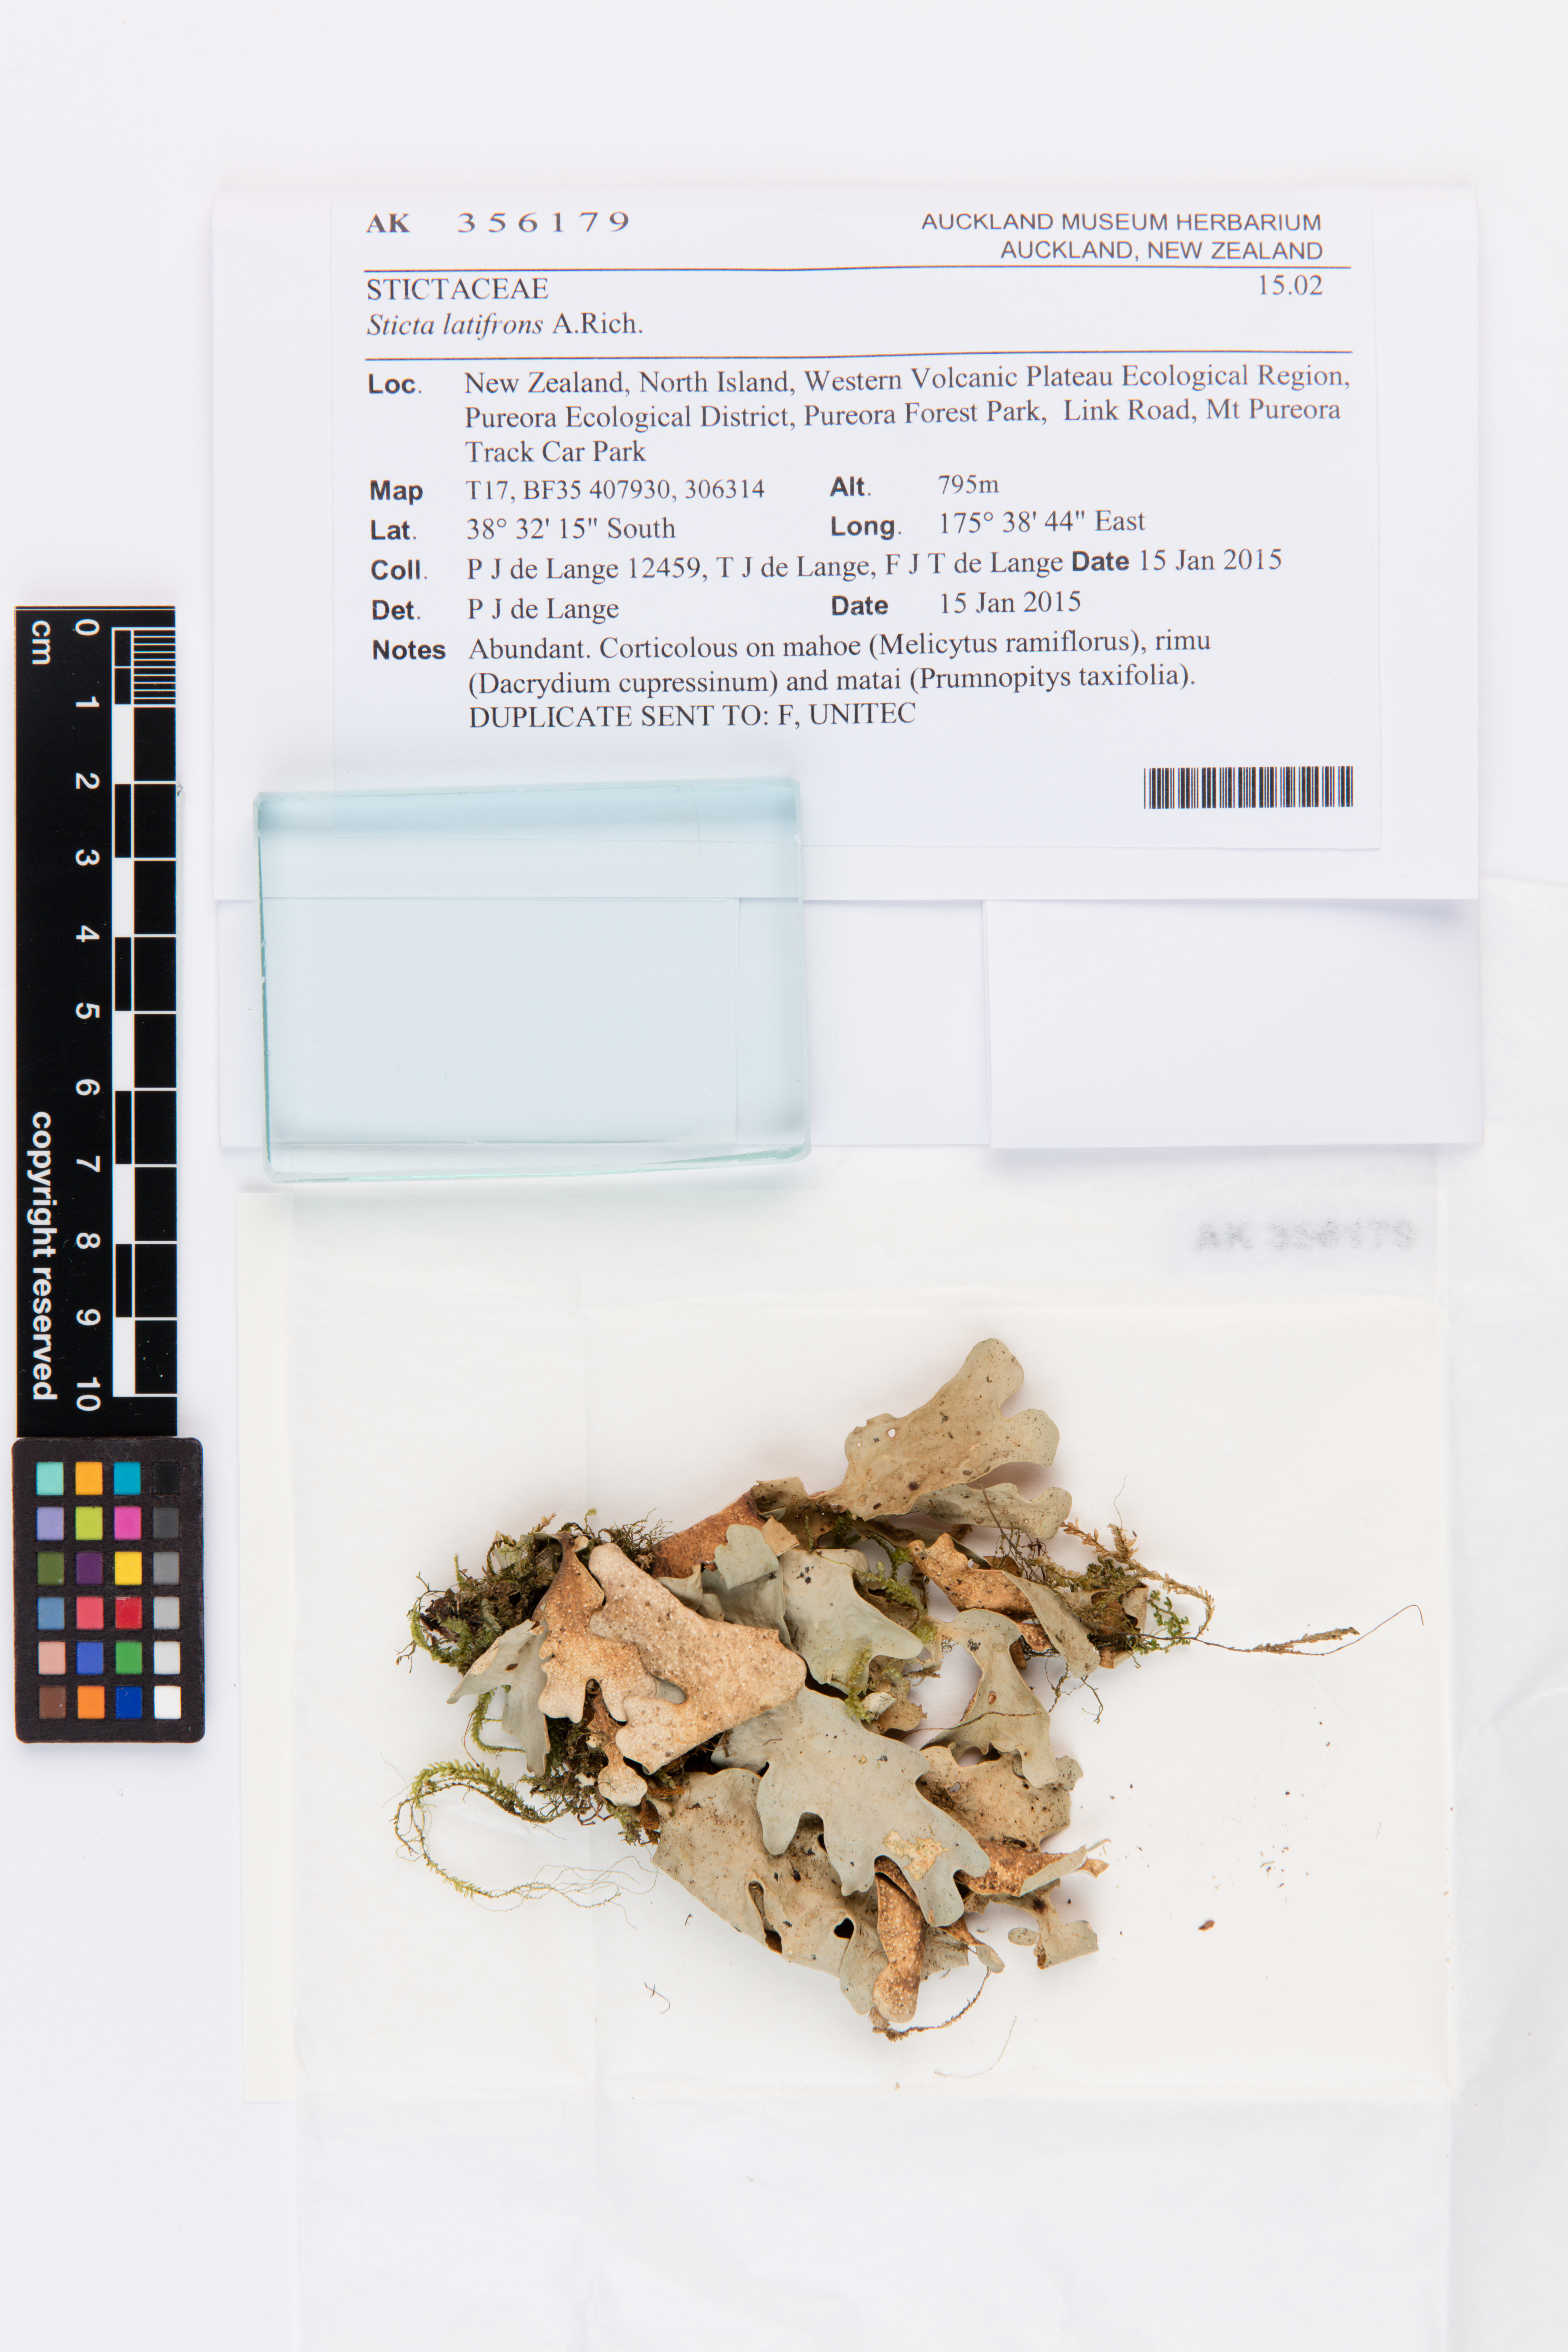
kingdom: Fungi
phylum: Ascomycota
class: Lecanoromycetes
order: Peltigerales
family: Lobariaceae
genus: Sticta
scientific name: Sticta latifrons
